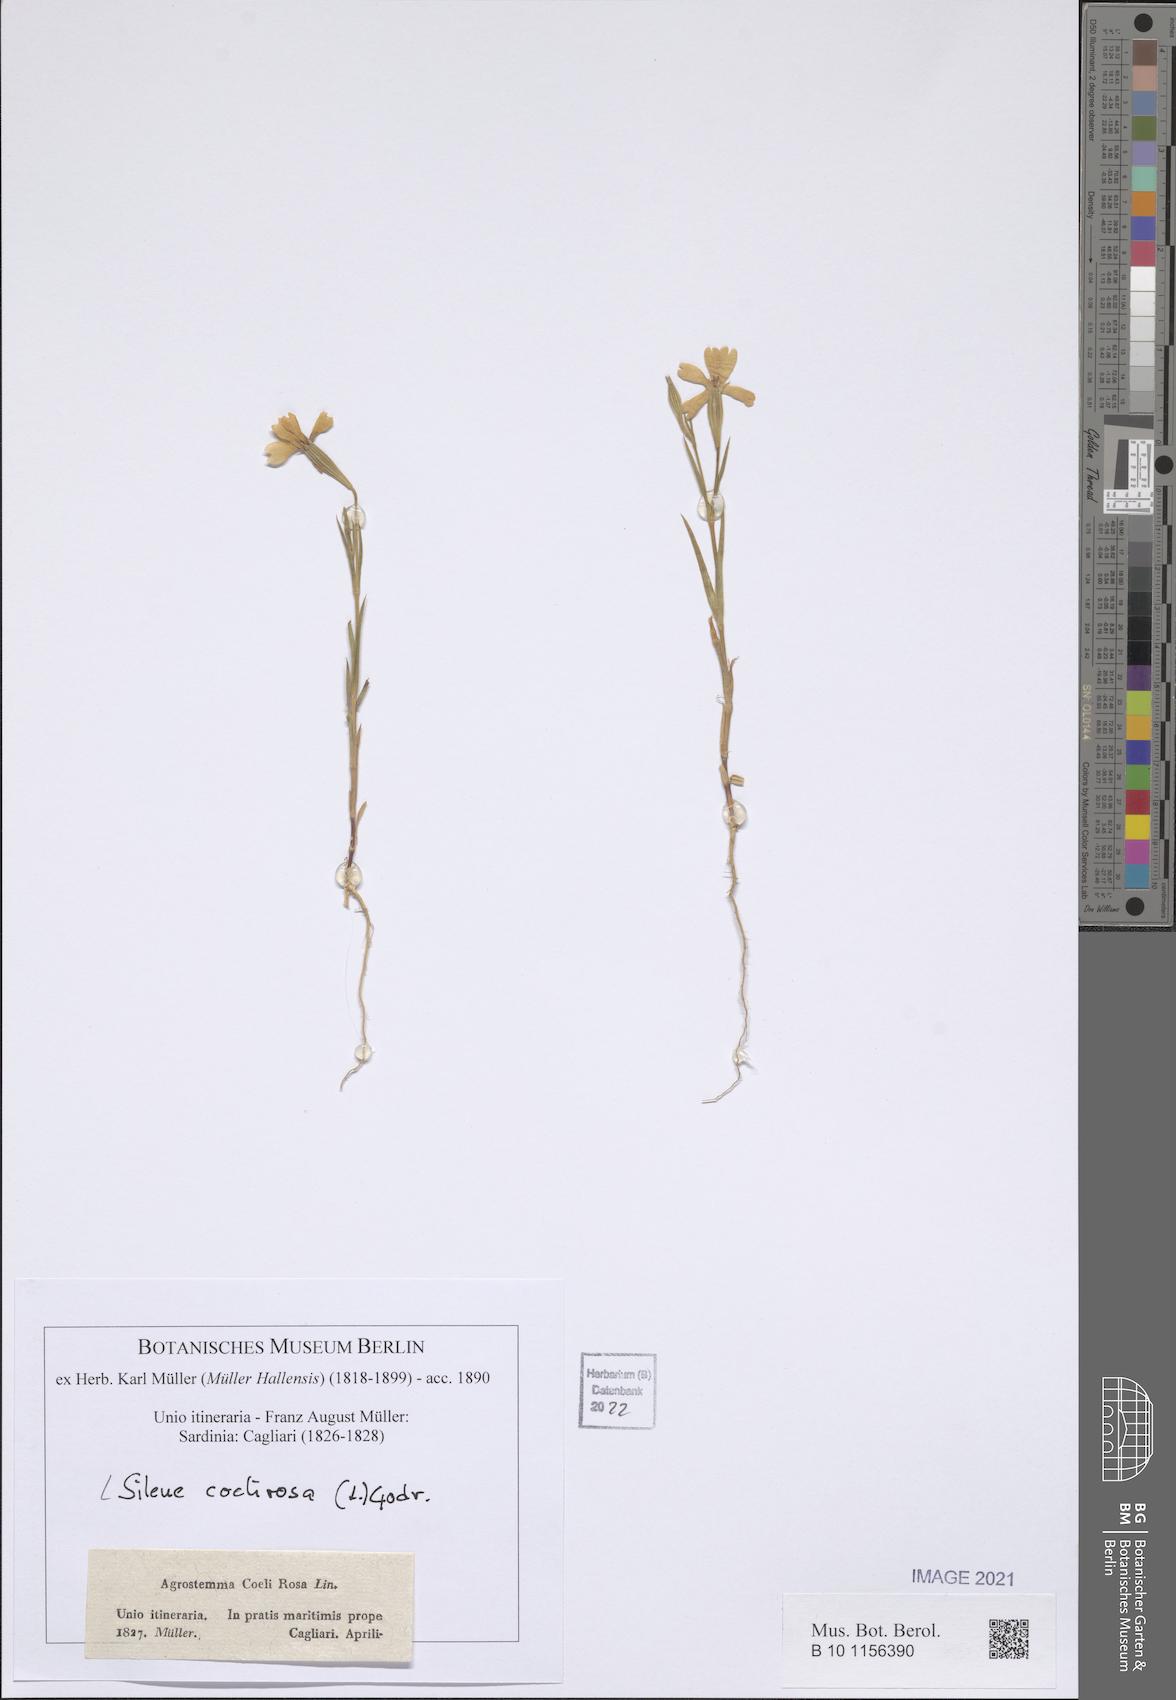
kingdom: Plantae
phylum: Tracheophyta
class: Magnoliopsida
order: Caryophyllales
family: Caryophyllaceae
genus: Eudianthe
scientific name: Eudianthe coeli-rosa
